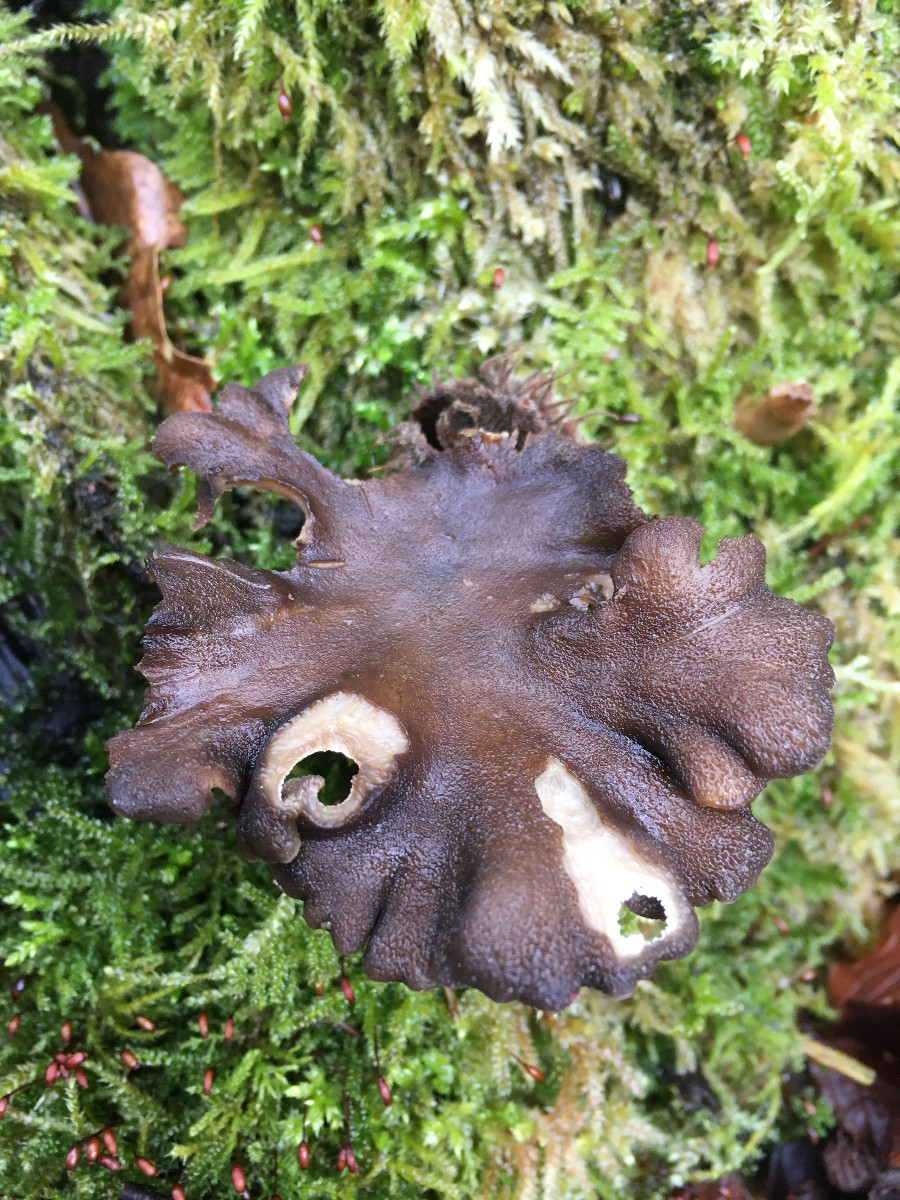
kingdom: Fungi
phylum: Basidiomycota
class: Agaricomycetes
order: Polyporales
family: Polyporaceae
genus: Lentinus
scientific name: Lentinus brumalis
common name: vinter-stilkporesvamp
